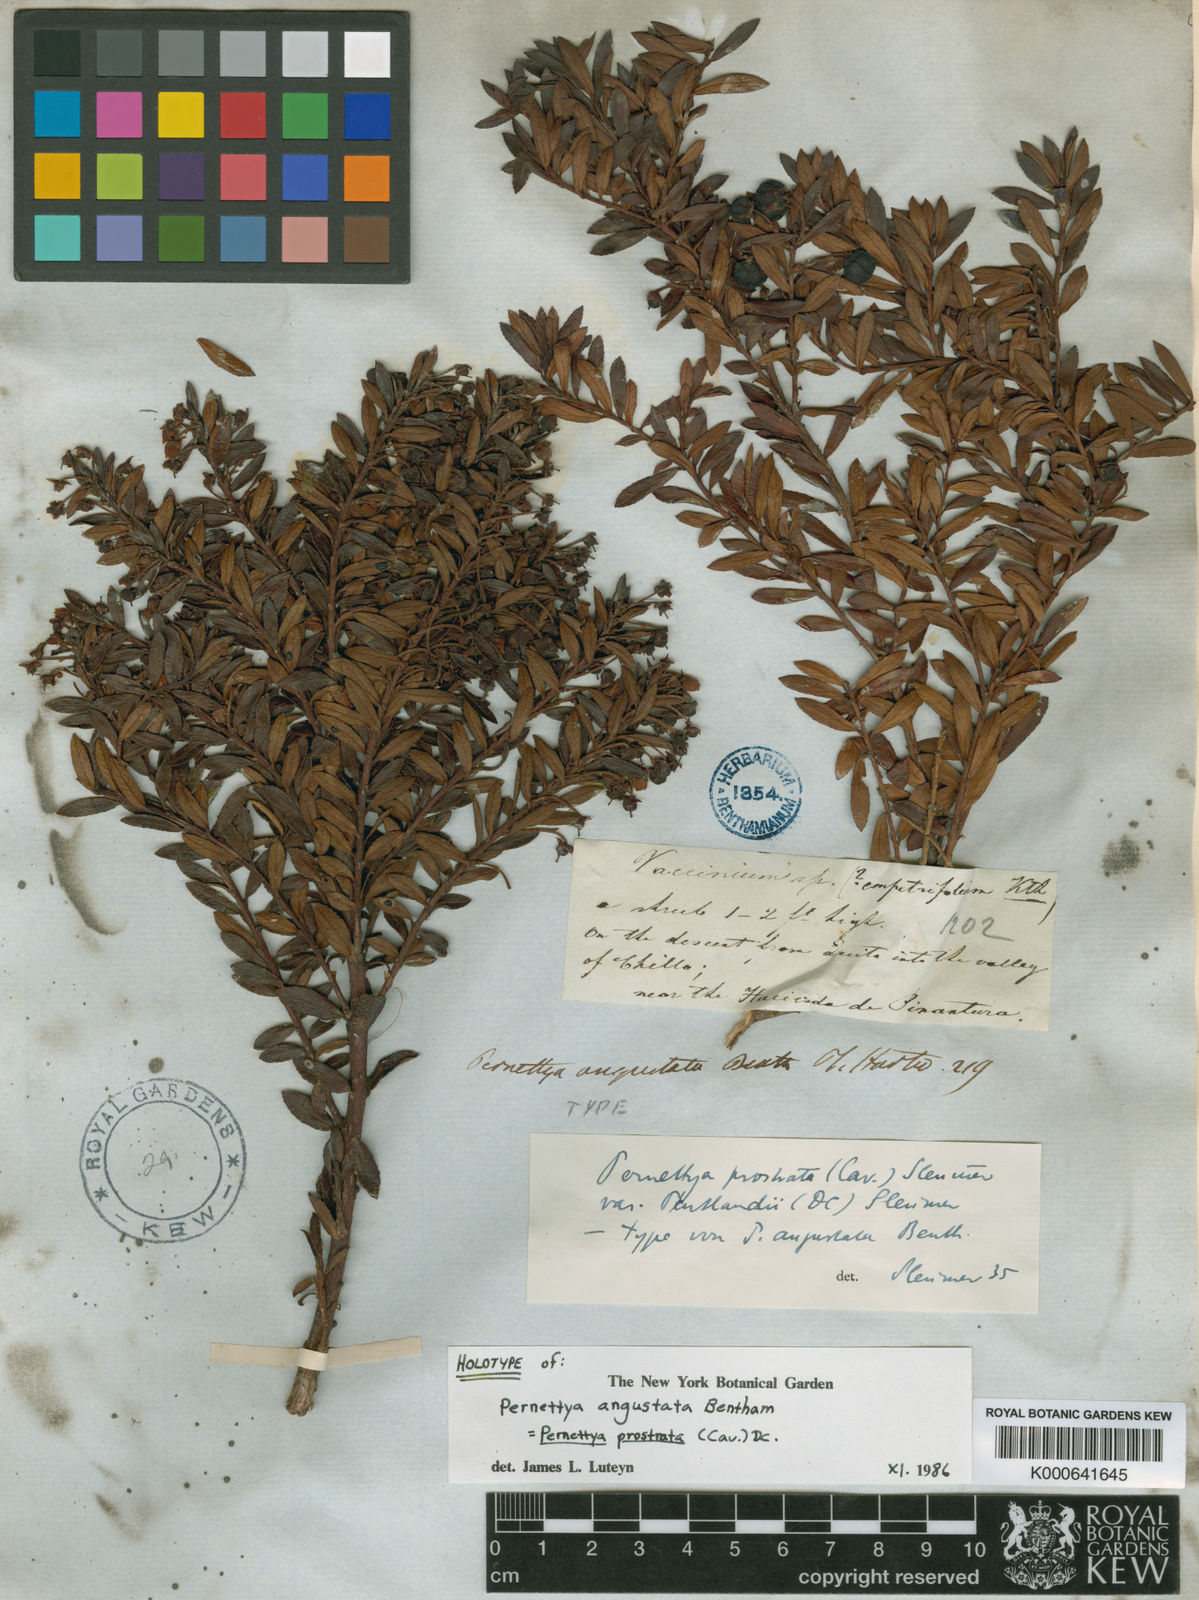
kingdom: Plantae
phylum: Tracheophyta
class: Magnoliopsida
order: Ericales
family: Ericaceae
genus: Gaultheria
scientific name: Gaultheria myrsinoides
